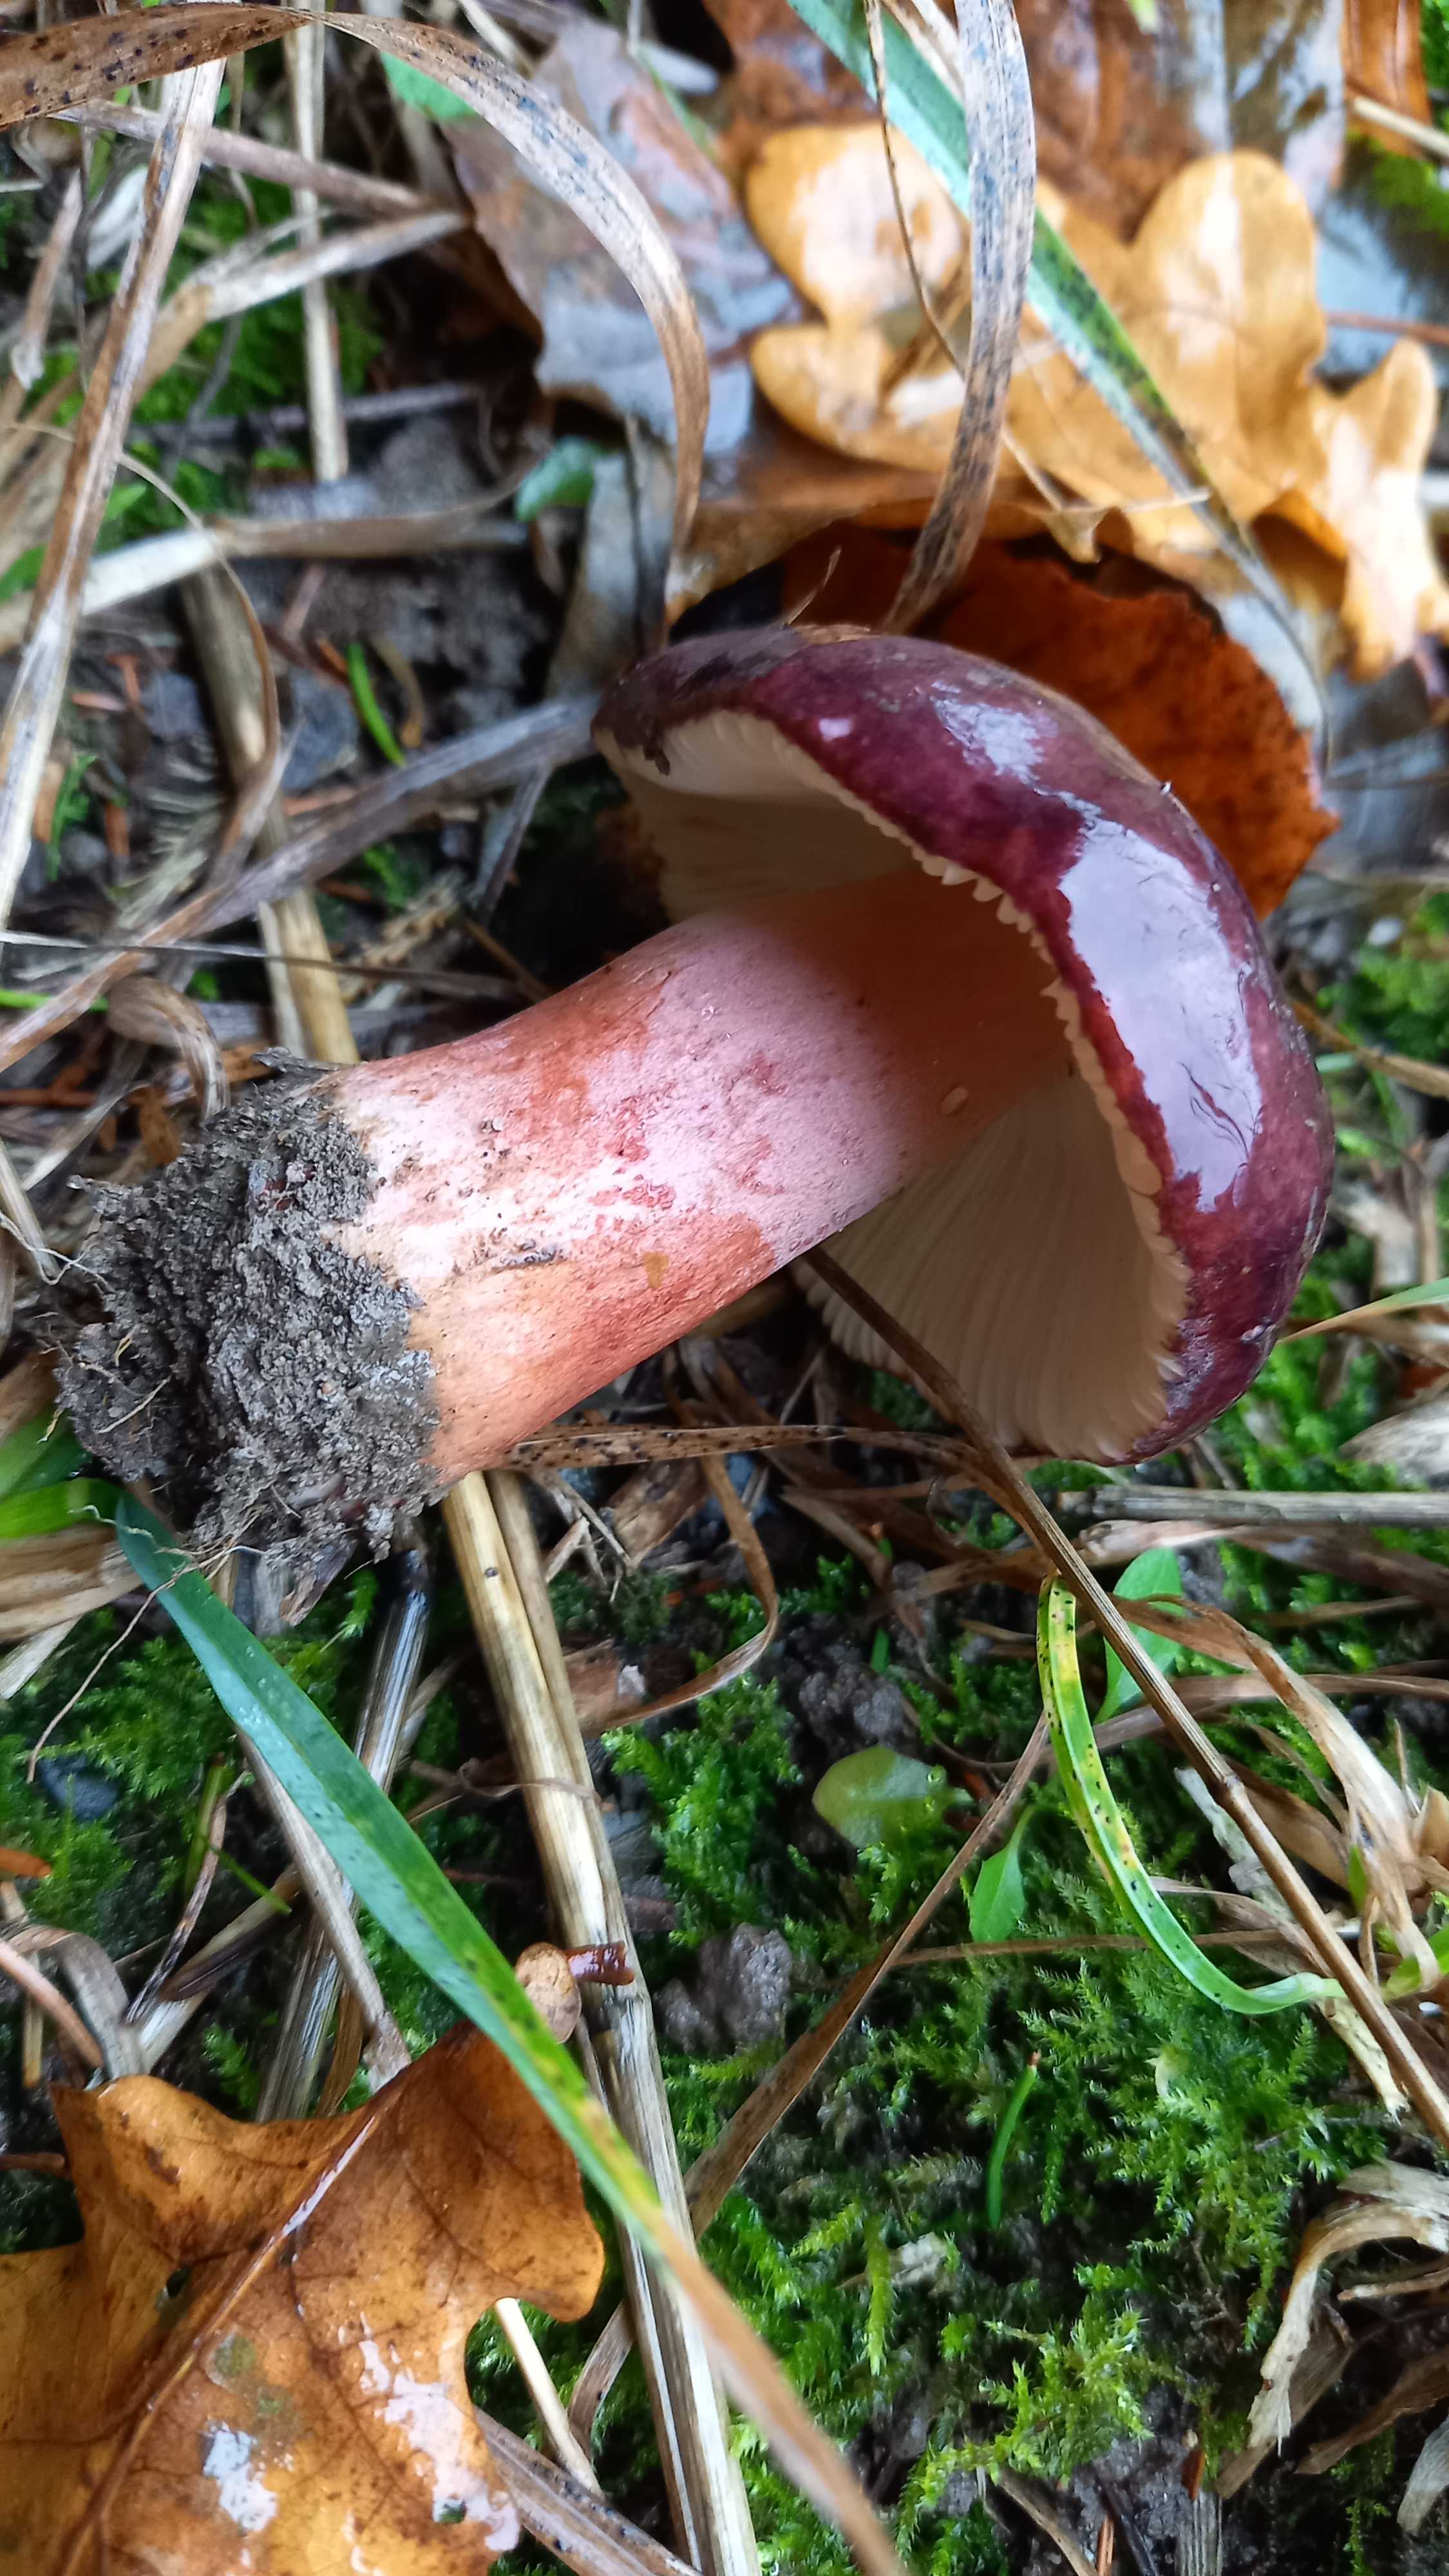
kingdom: Fungi
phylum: Basidiomycota
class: Agaricomycetes
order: Russulales
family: Russulaceae
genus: Russula
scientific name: Russula queletii
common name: Quélets skørhat
